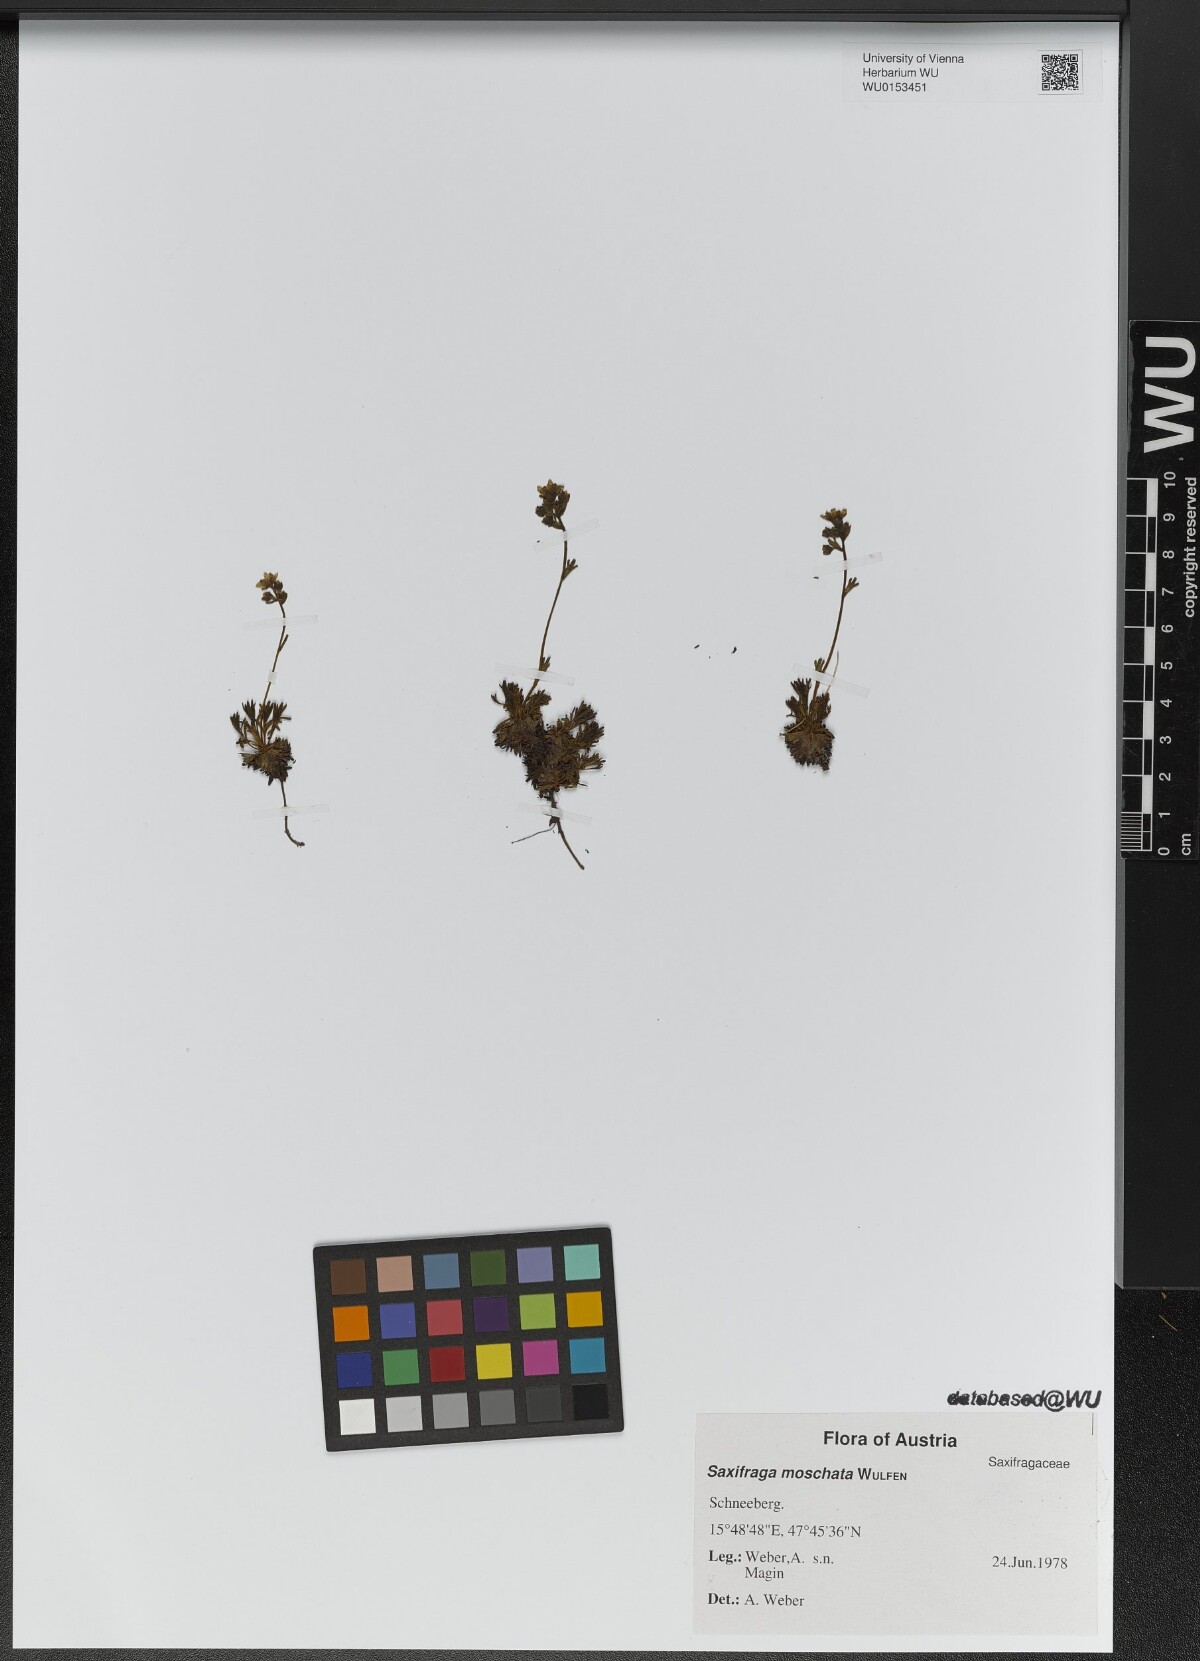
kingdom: Plantae
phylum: Tracheophyta
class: Magnoliopsida
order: Saxifragales
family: Saxifragaceae
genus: Saxifraga
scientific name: Saxifraga moschata
